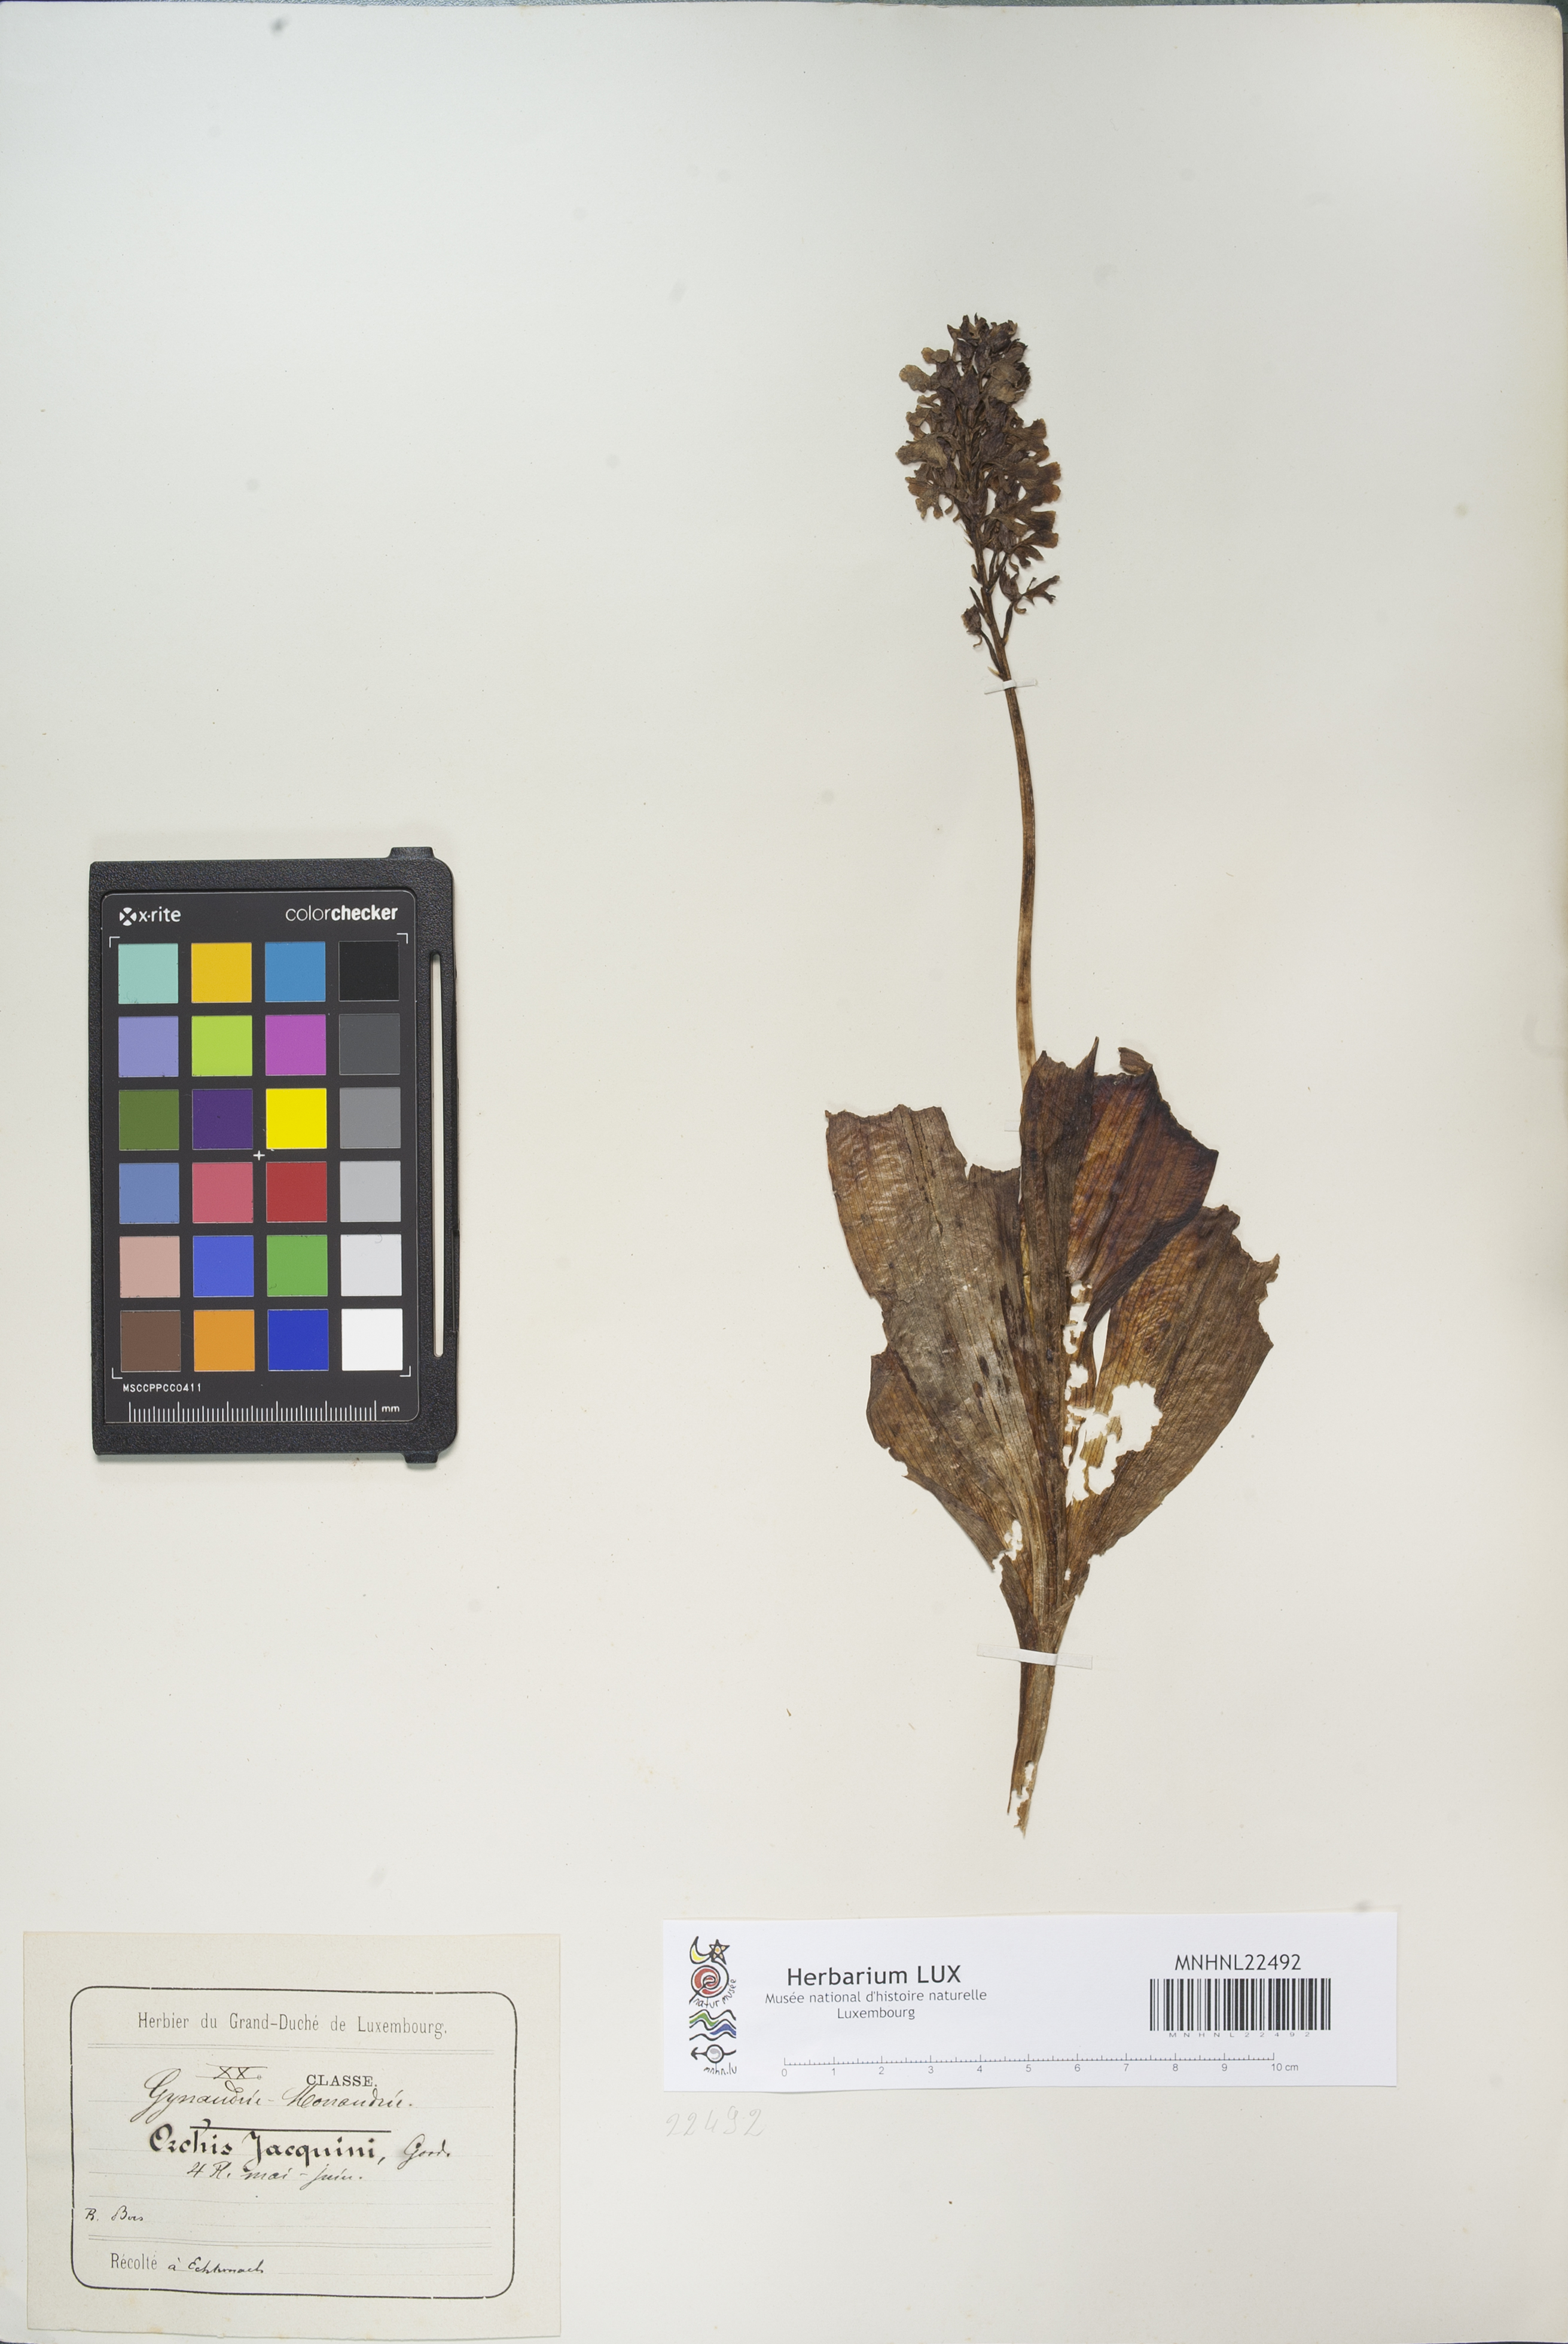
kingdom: Plantae
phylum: Tracheophyta
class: Liliopsida
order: Asparagales
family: Orchidaceae
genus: Orchis
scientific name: Orchis purpurea
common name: Lady orchid
